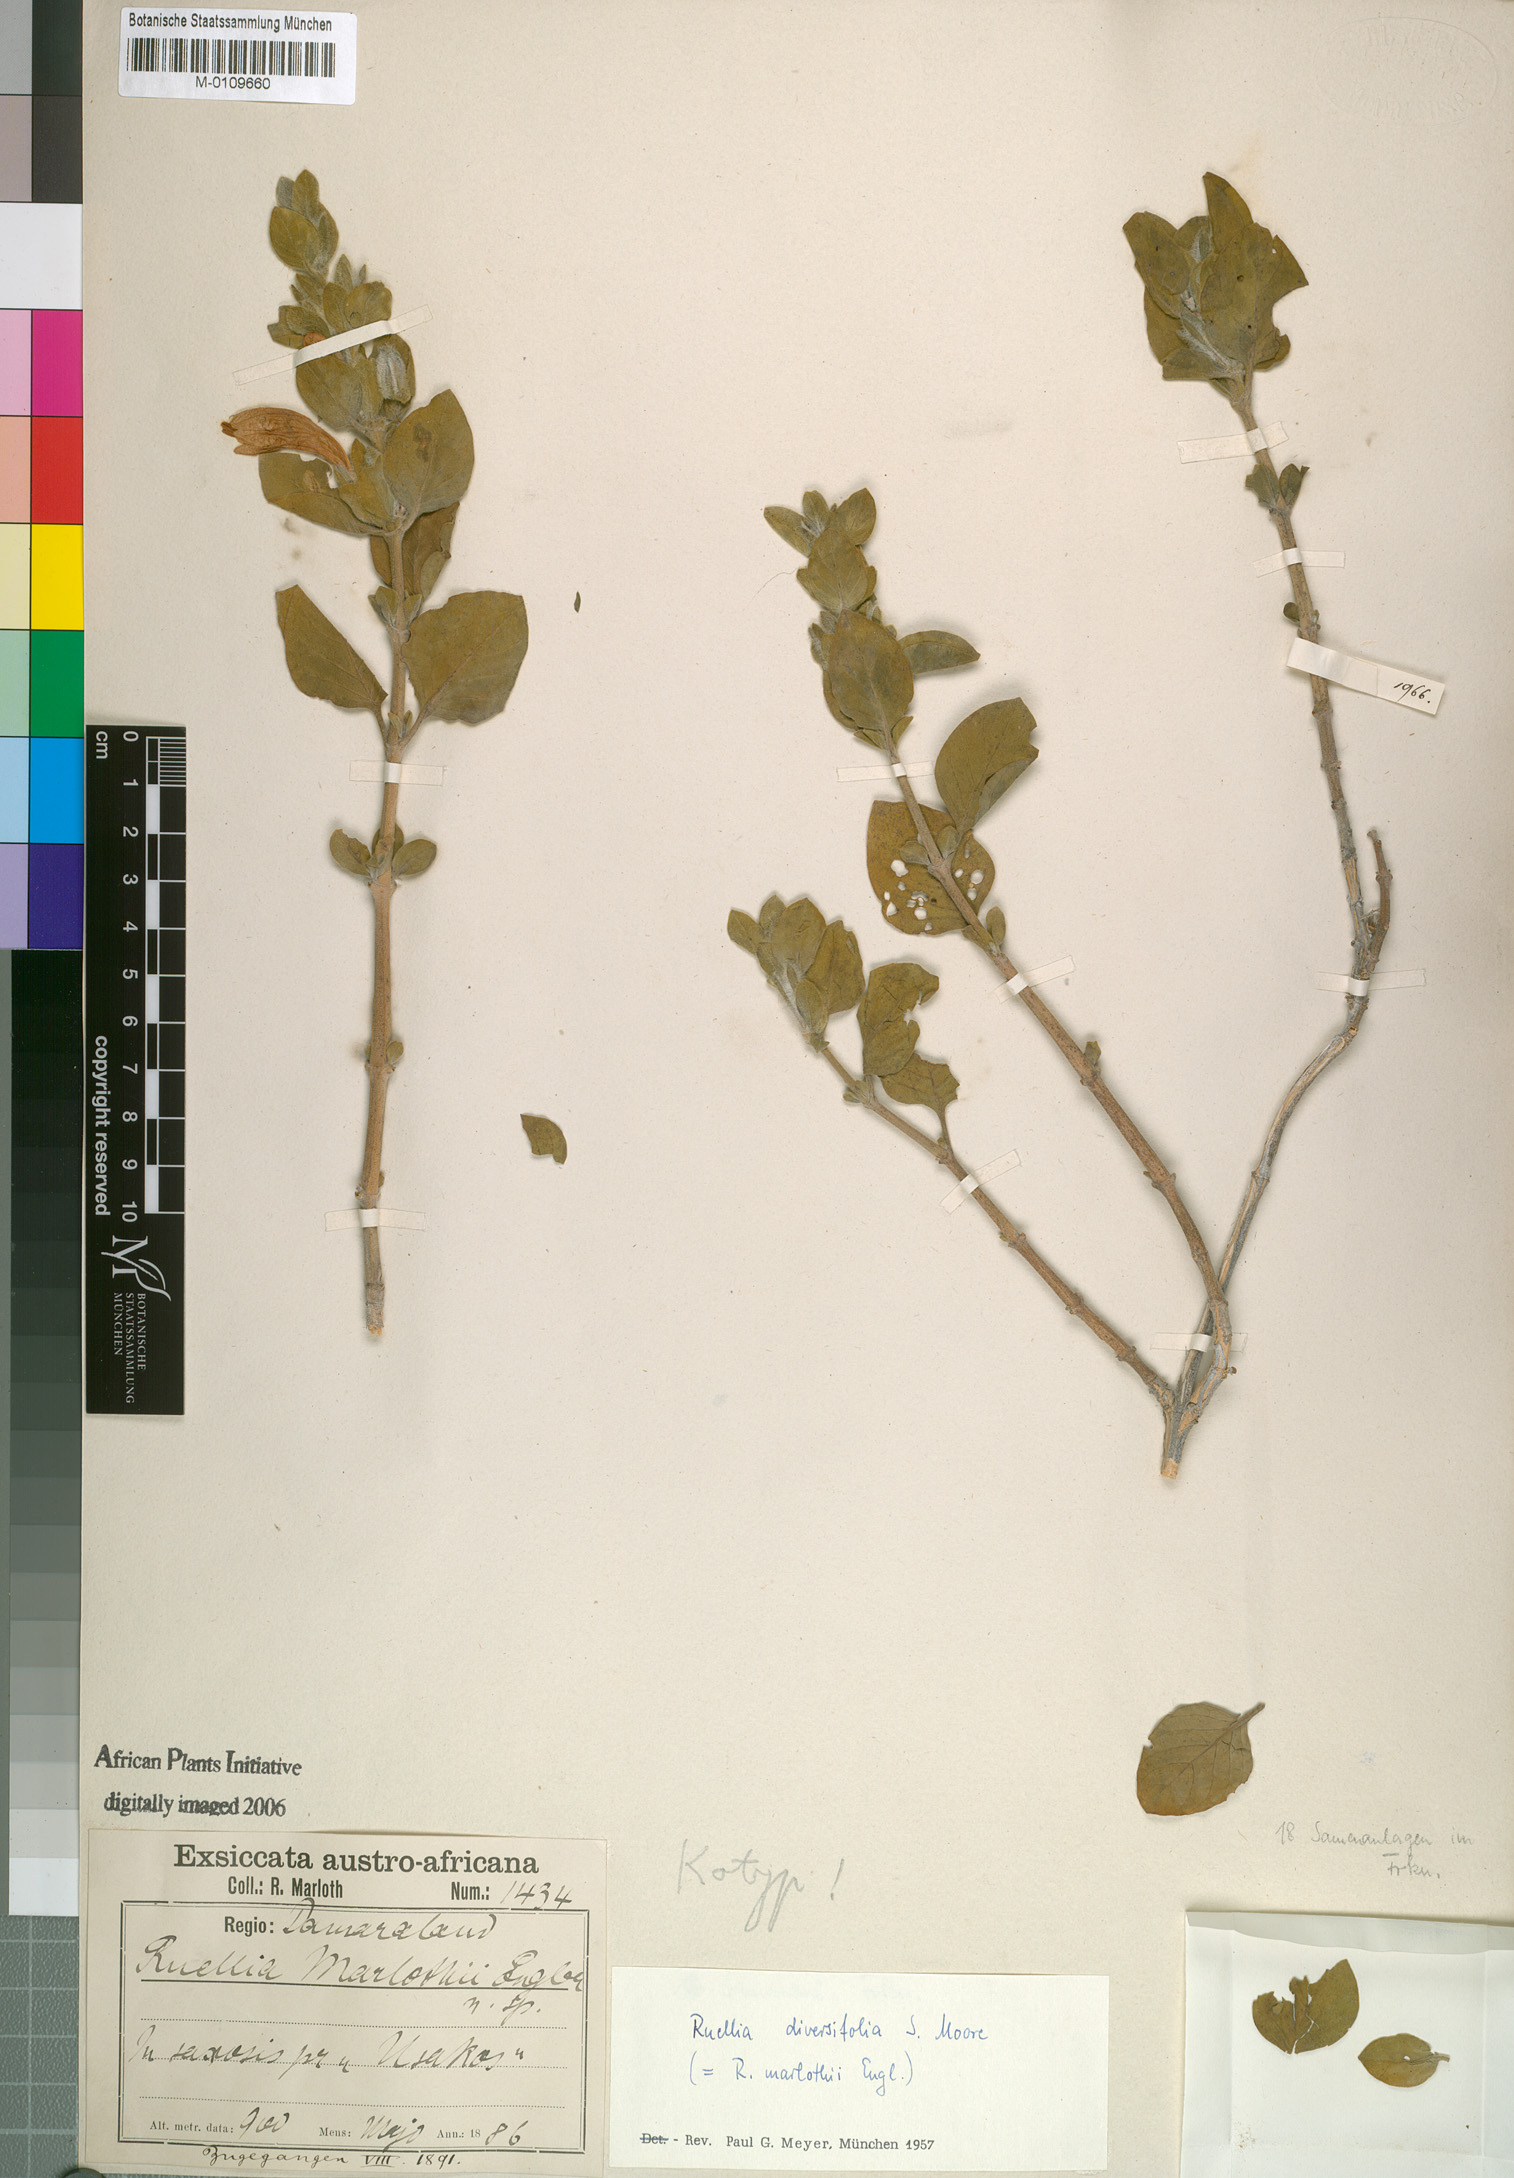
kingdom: Plantae
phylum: Tracheophyta
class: Magnoliopsida
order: Lamiales
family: Acanthaceae
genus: Dinteracanthus
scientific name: Dinteracanthus diversifolius
